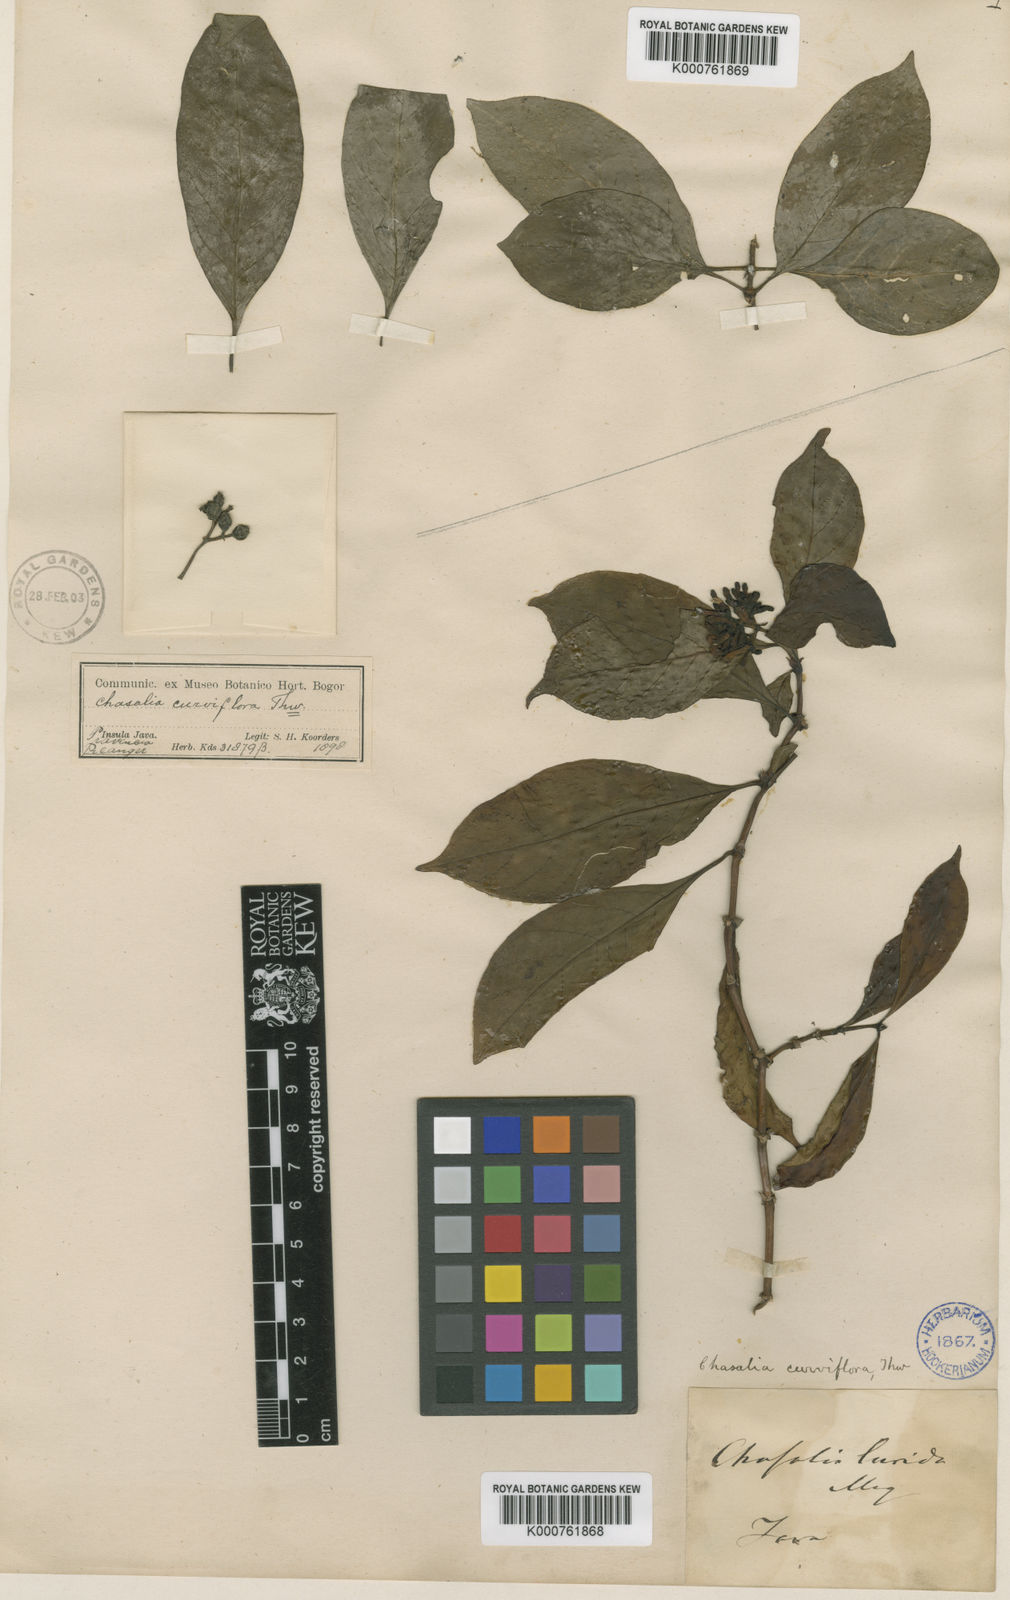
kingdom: Plantae
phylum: Tracheophyta
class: Magnoliopsida
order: Gentianales
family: Rubiaceae
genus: Chassalia
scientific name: Chassalia curviflora
